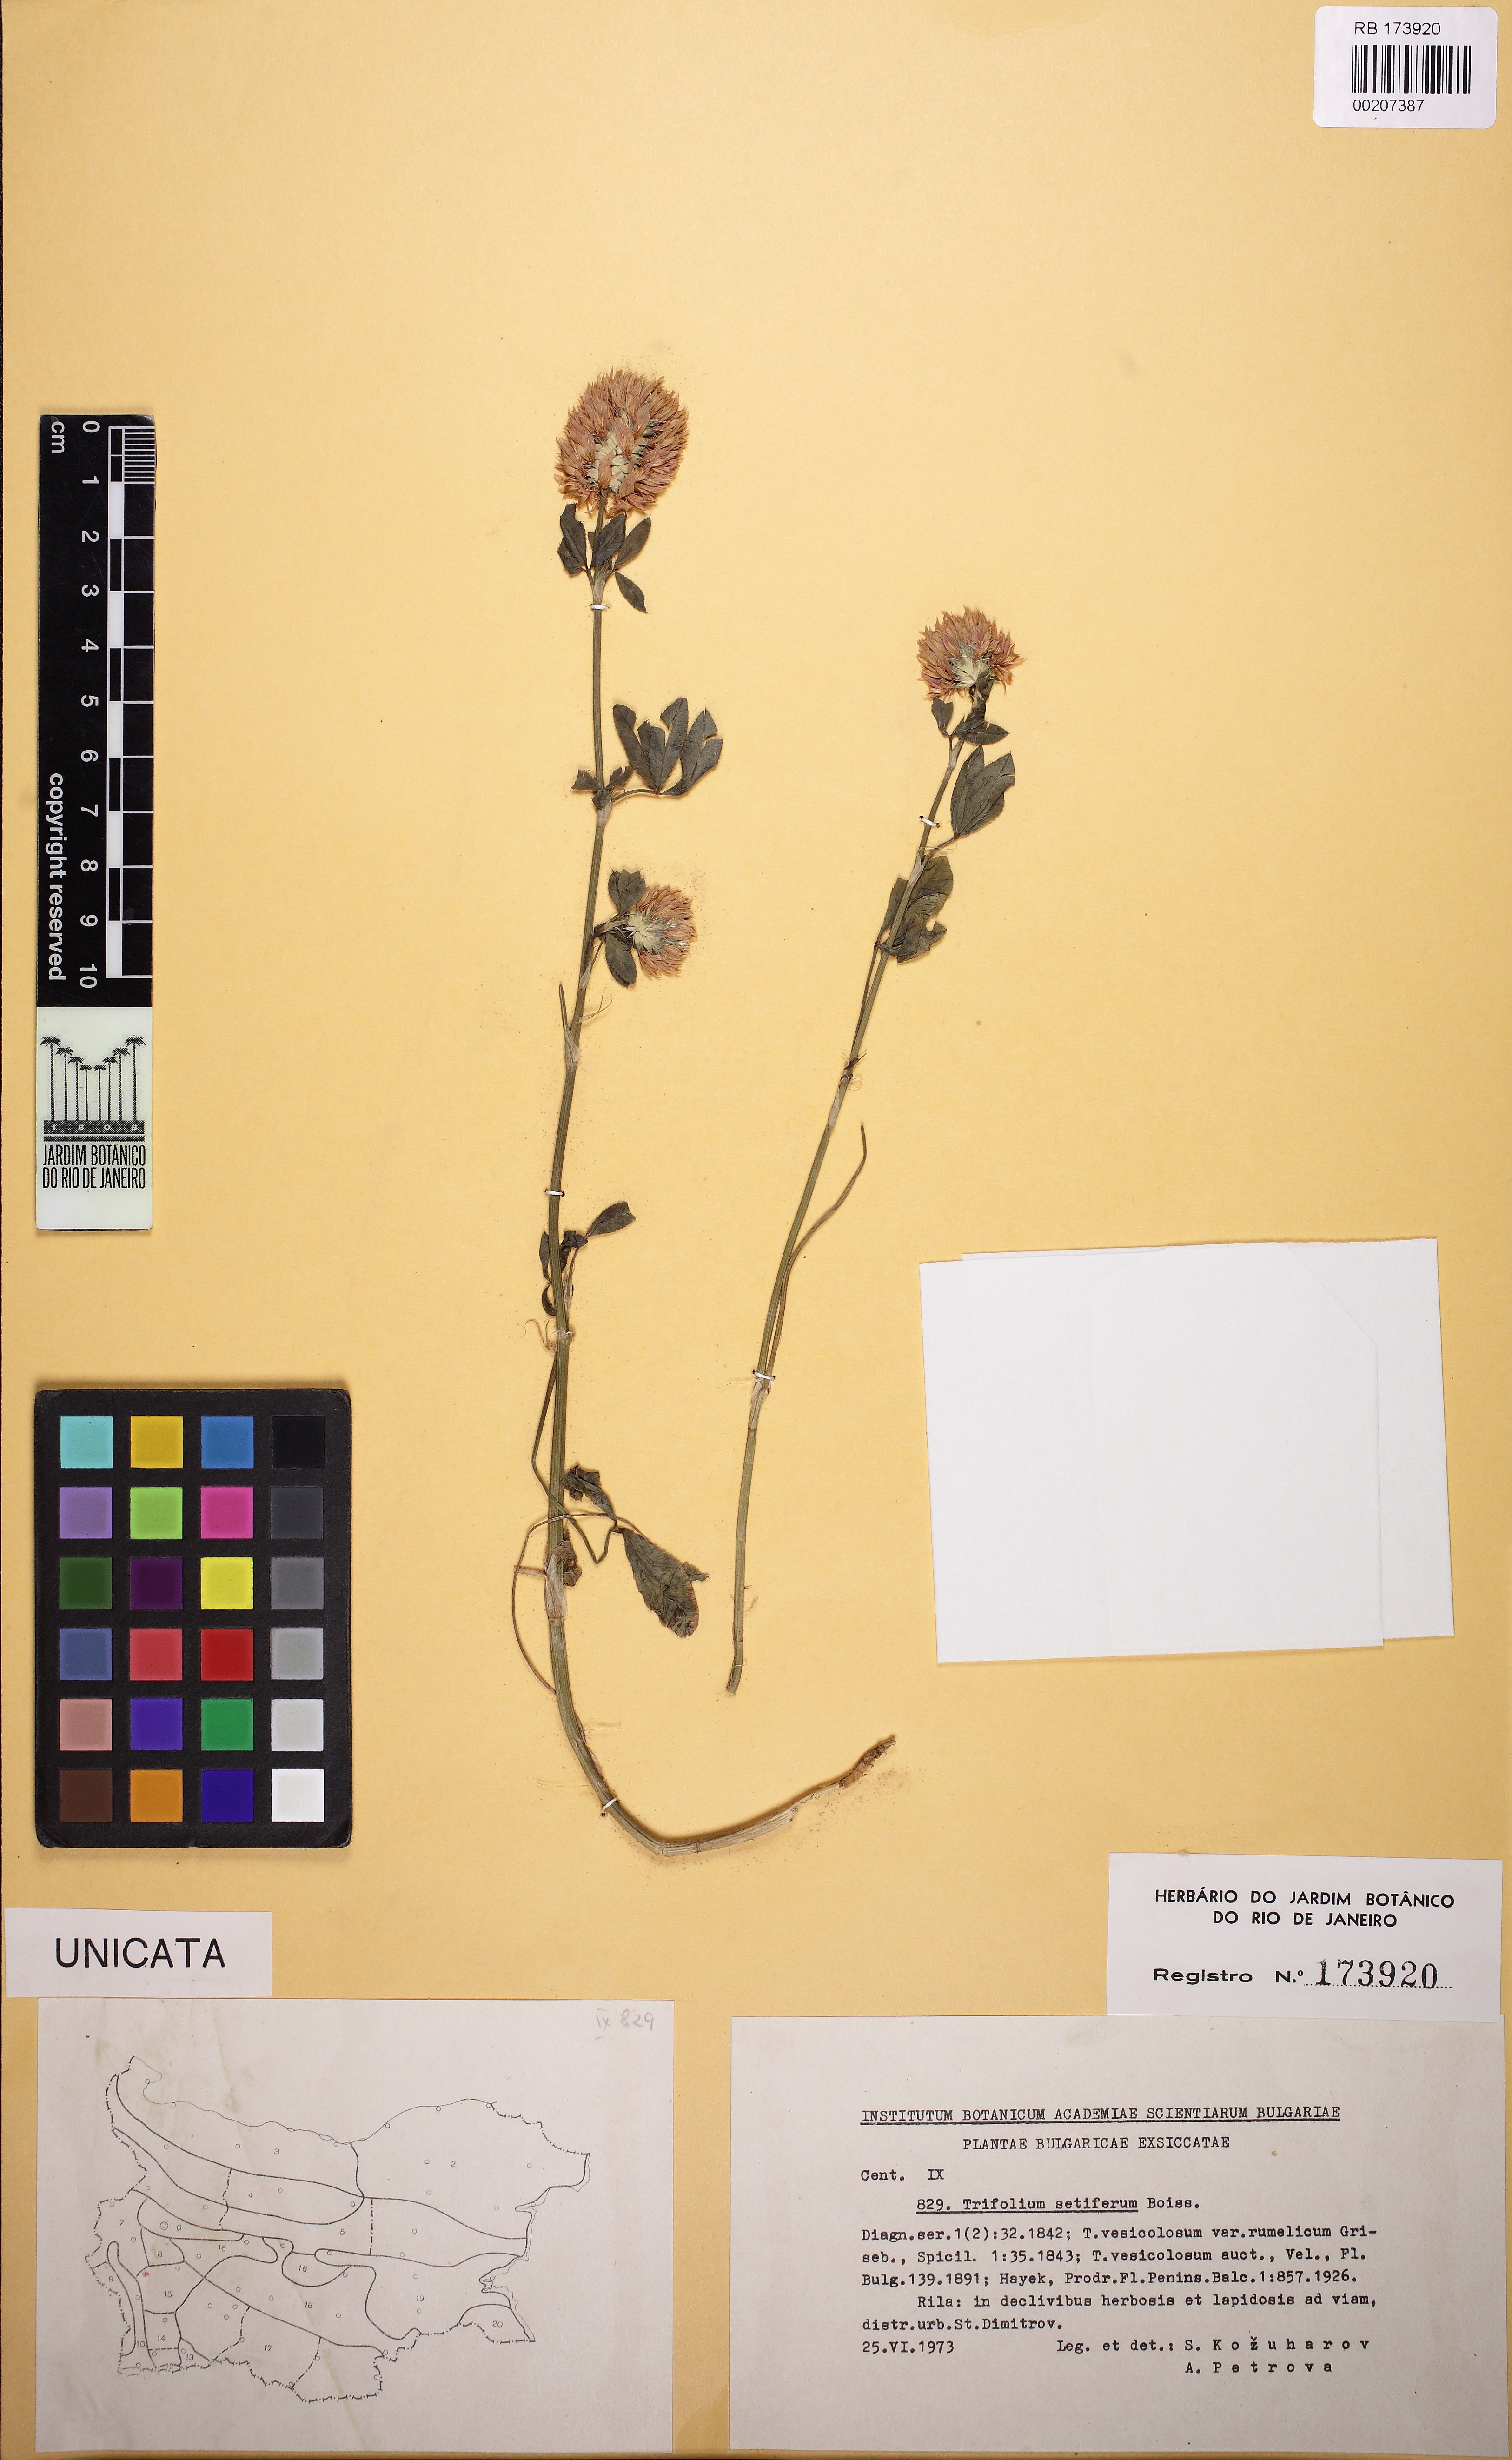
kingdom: Plantae
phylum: Tracheophyta
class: Magnoliopsida
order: Fabales
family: Fabaceae
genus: Trifolium
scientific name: Trifolium setiferum
